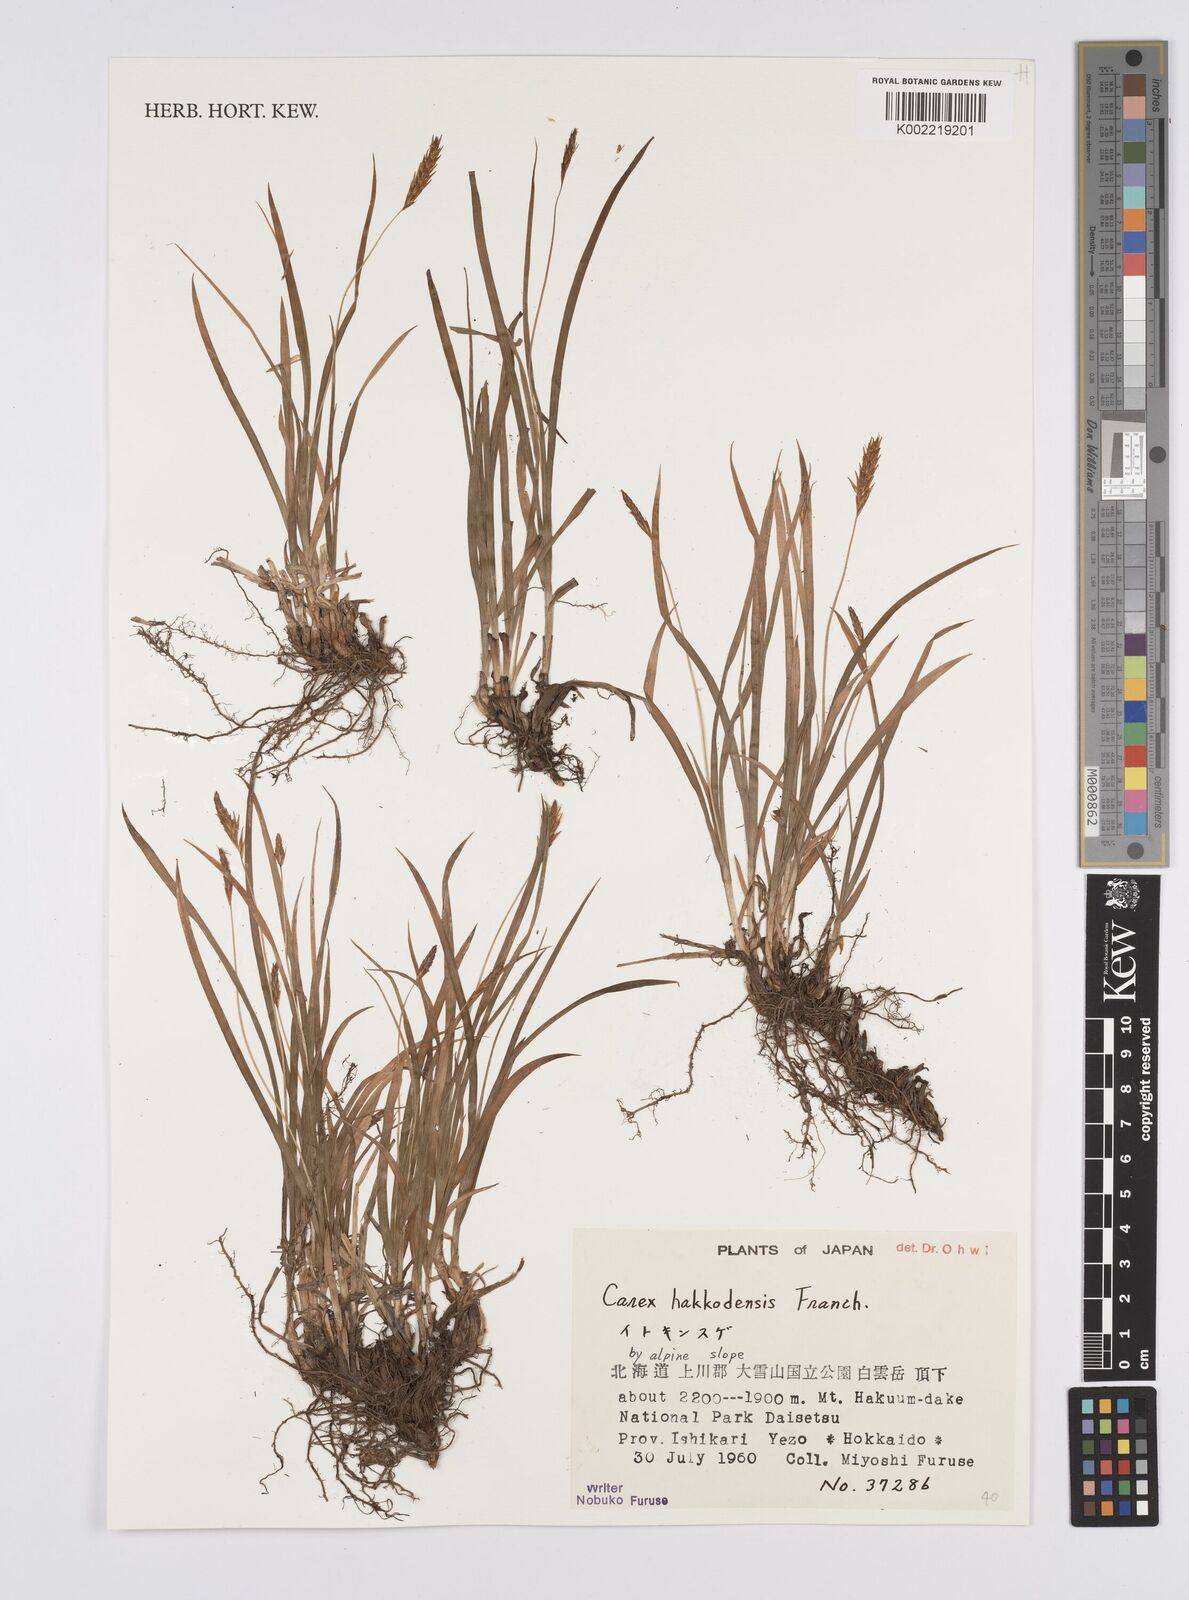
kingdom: Plantae
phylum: Tracheophyta
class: Liliopsida
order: Poales
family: Cyperaceae
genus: Carex
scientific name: Carex hakkodensis
